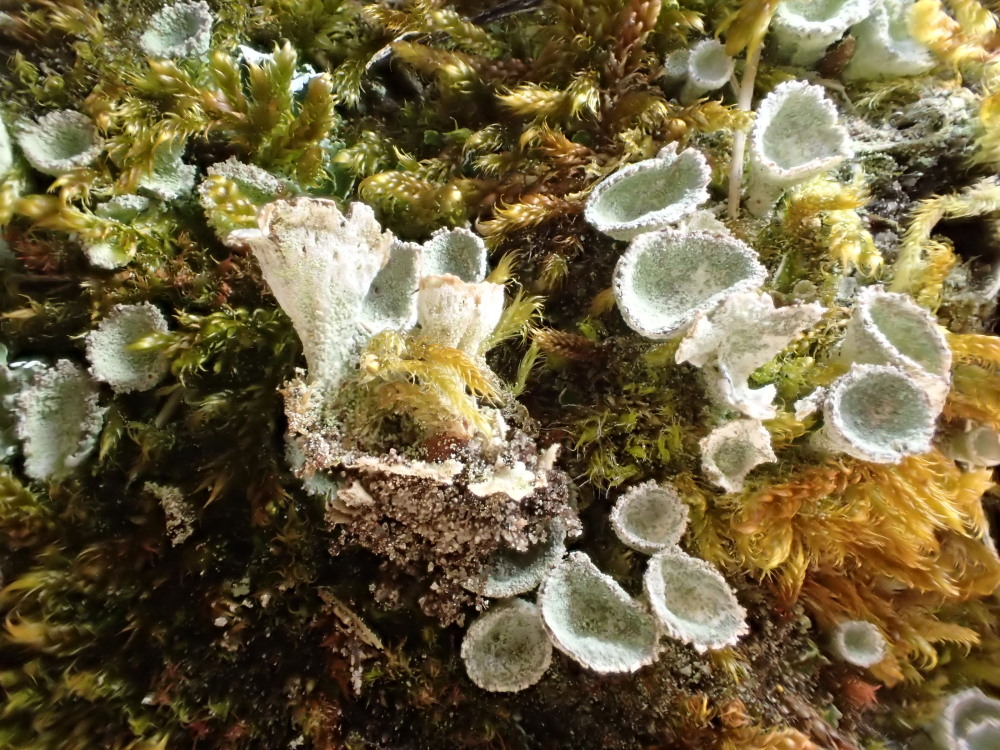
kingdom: Fungi
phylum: Ascomycota
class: Lecanoromycetes
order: Lecanorales
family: Cladoniaceae
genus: Cladonia
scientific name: Cladonia humilis
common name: lav bægerlav
